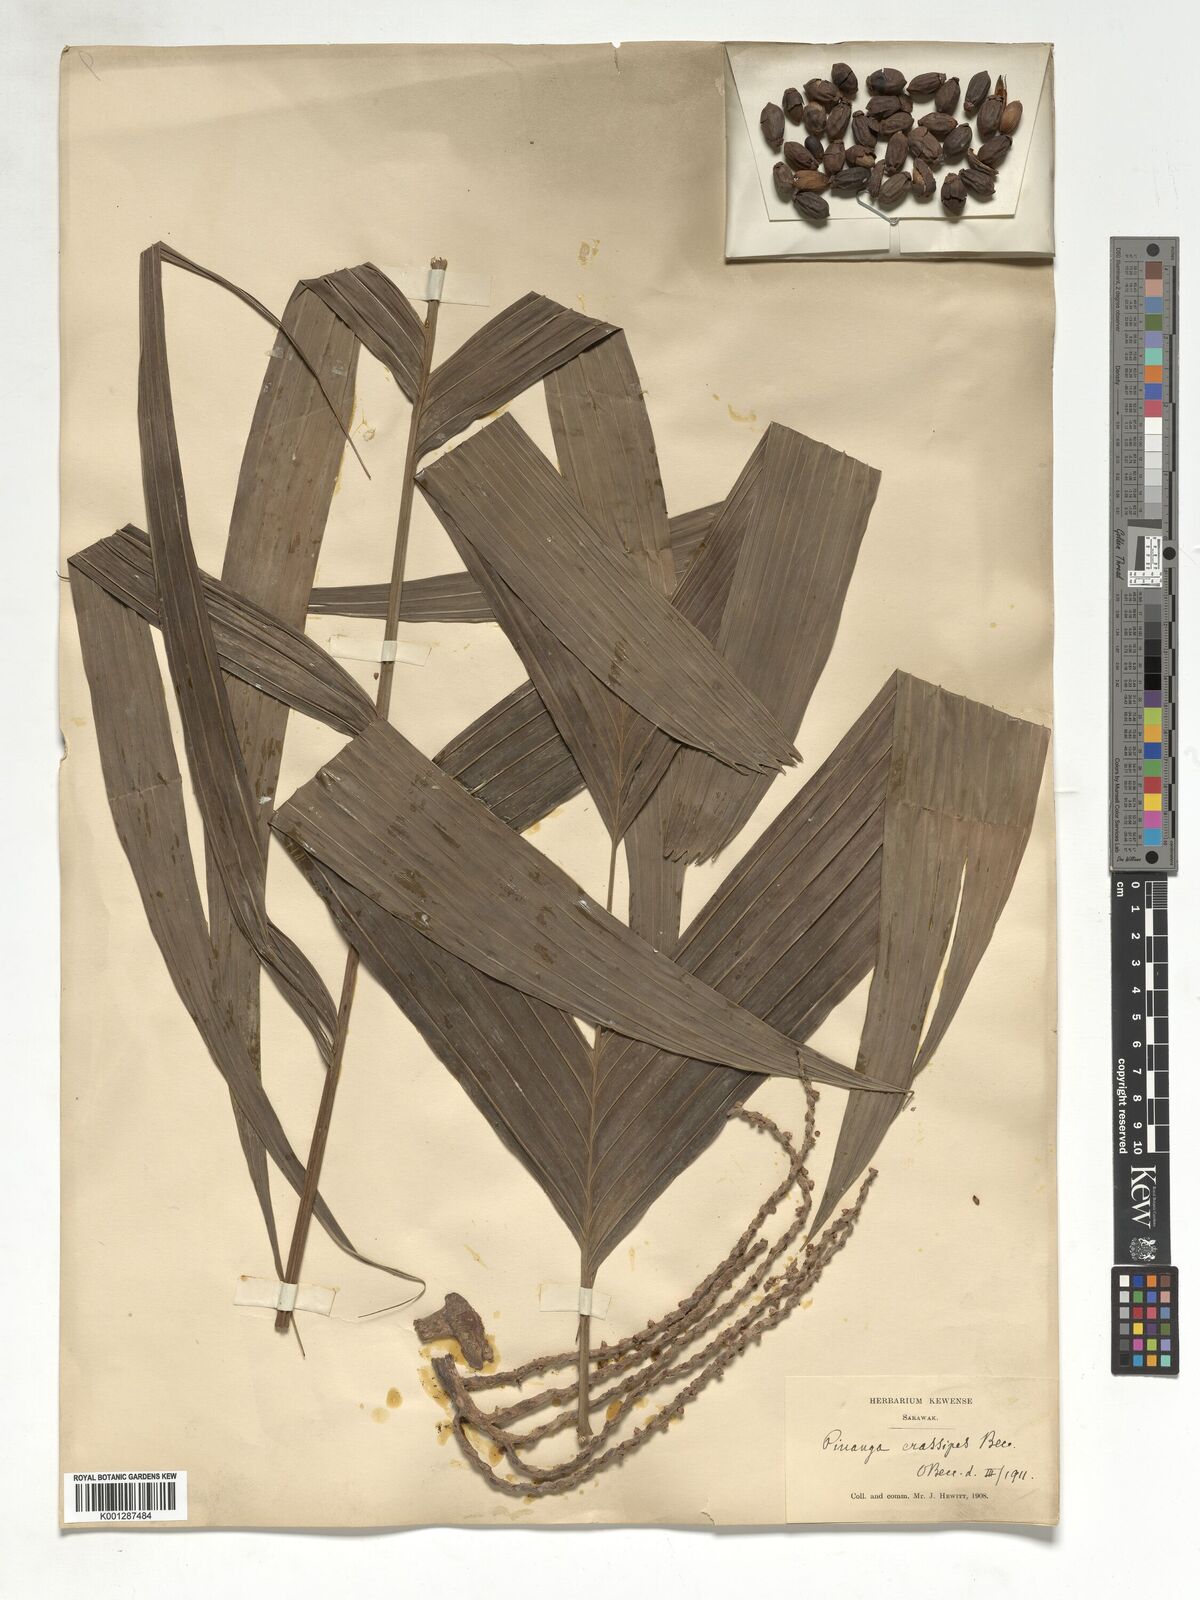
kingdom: Plantae
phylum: Tracheophyta
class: Liliopsida
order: Arecales
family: Arecaceae
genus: Pinanga
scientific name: Pinanga crassipes
